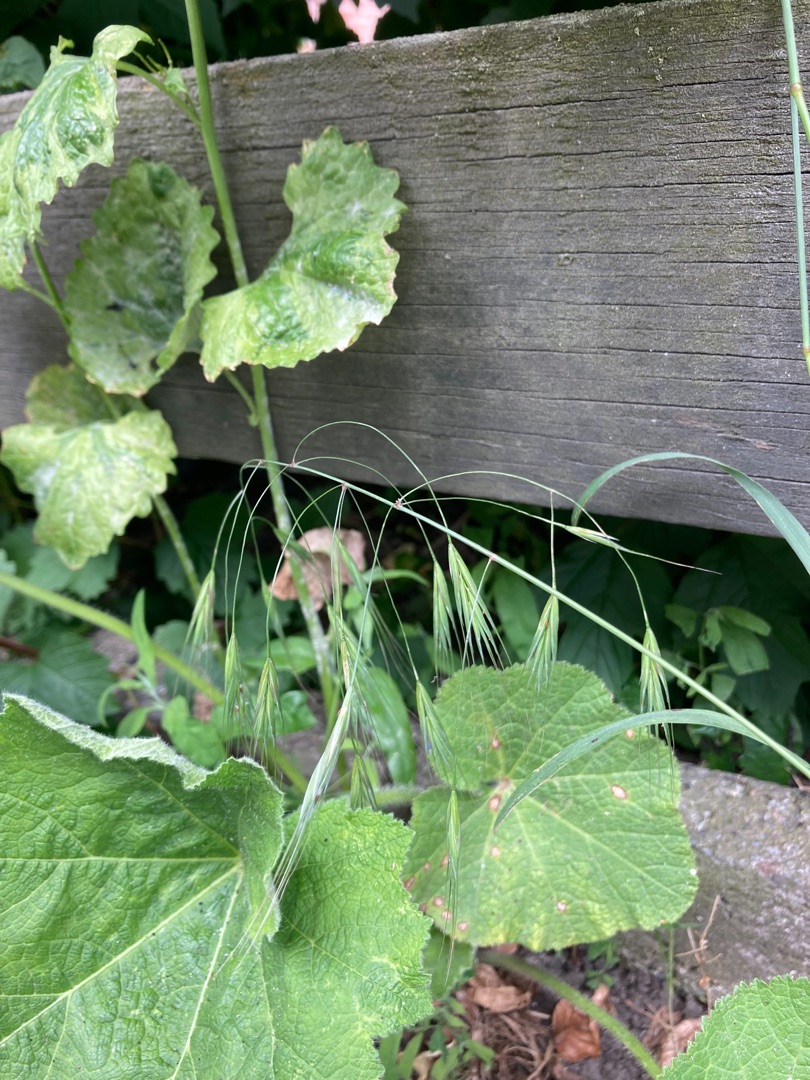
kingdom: Plantae
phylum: Tracheophyta
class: Liliopsida
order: Poales
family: Poaceae
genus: Bromus
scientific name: Bromus sterilis
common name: Gold hejre
